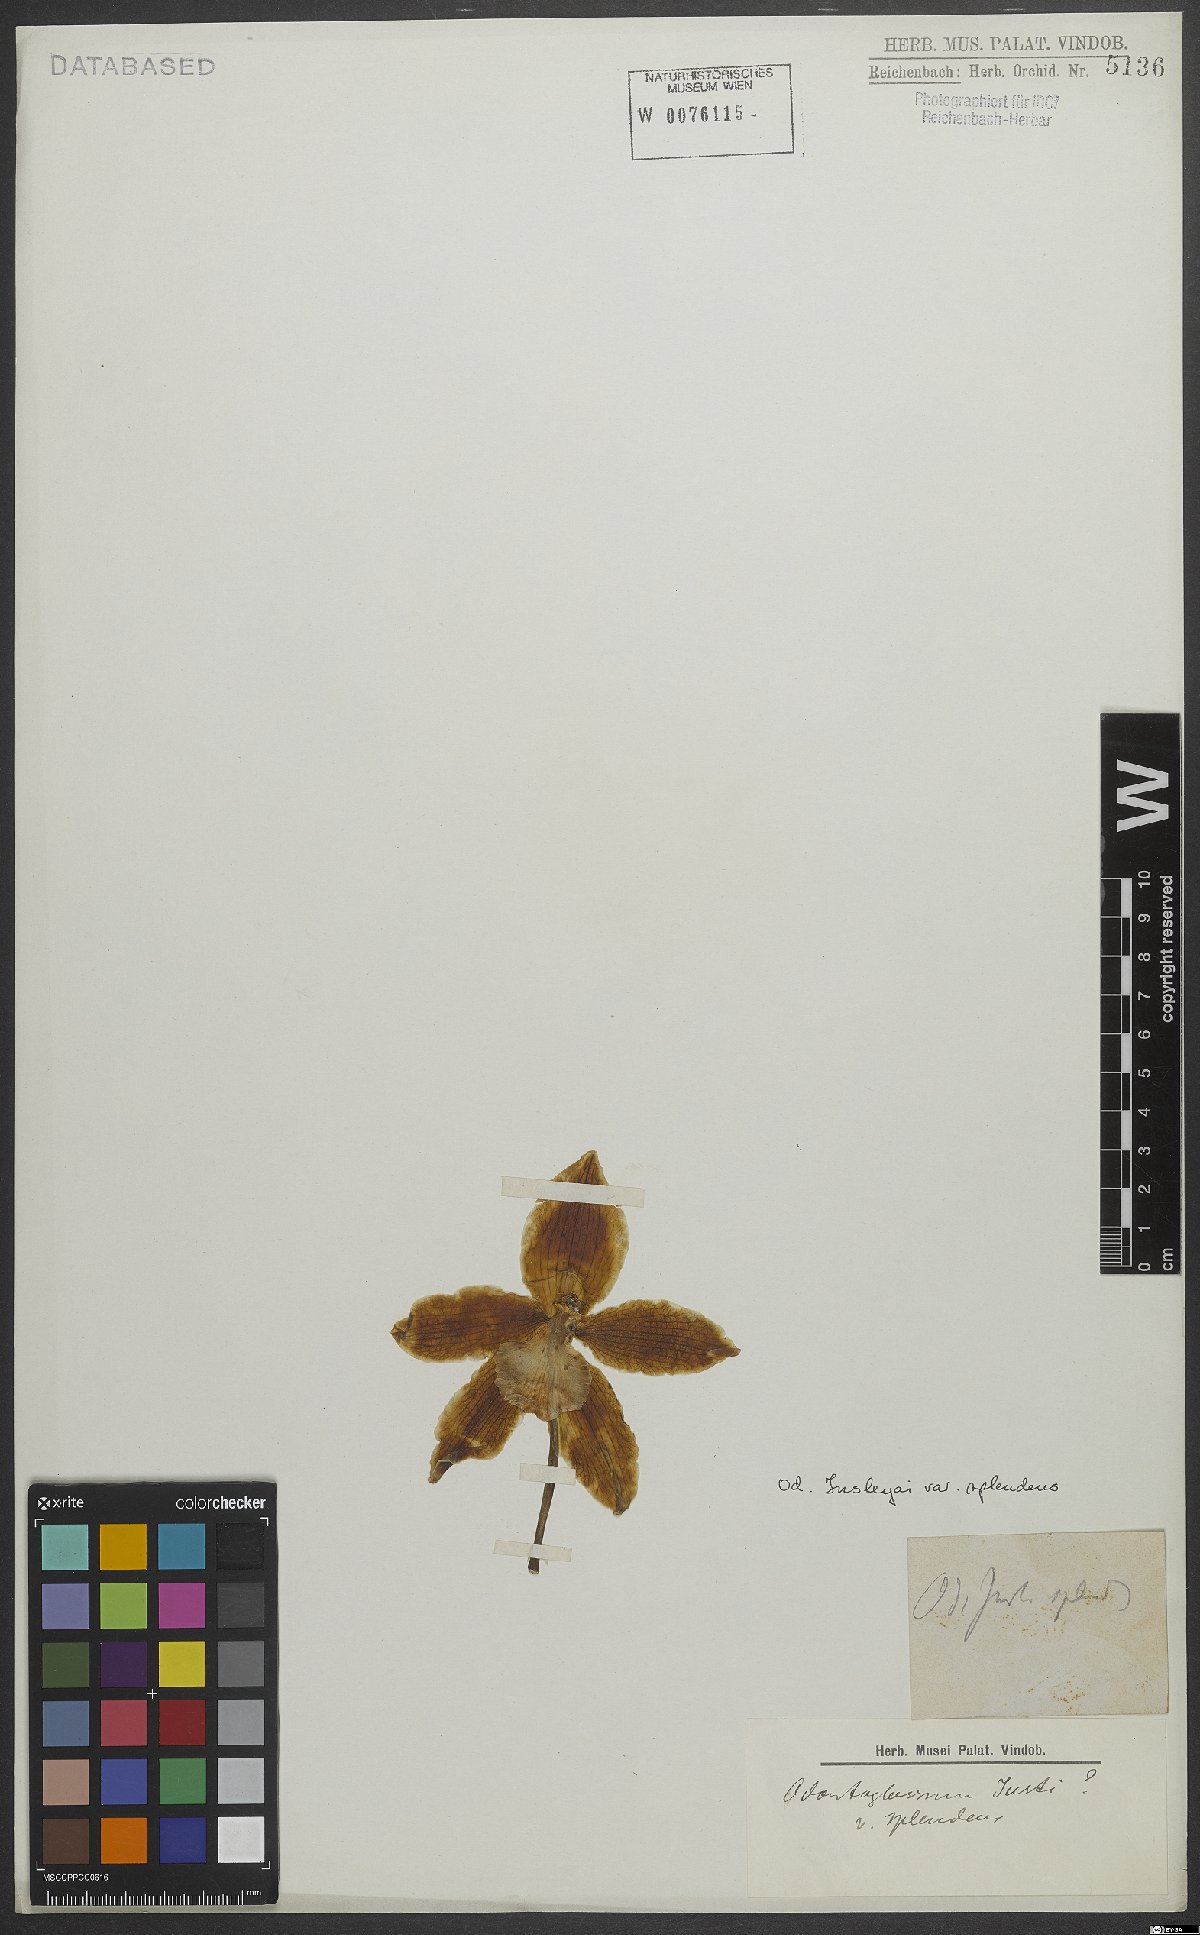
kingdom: Plantae
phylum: Tracheophyta
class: Liliopsida
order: Asparagales
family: Orchidaceae
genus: Rossioglossum
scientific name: Rossioglossum splendens
